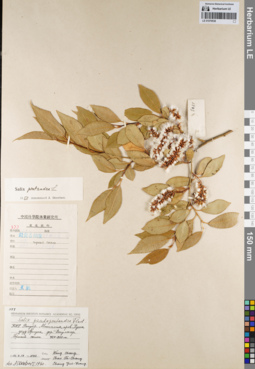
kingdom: Plantae
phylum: Tracheophyta
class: Magnoliopsida
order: Malpighiales
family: Salicaceae
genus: Salix
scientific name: Salix pseudopentandra
